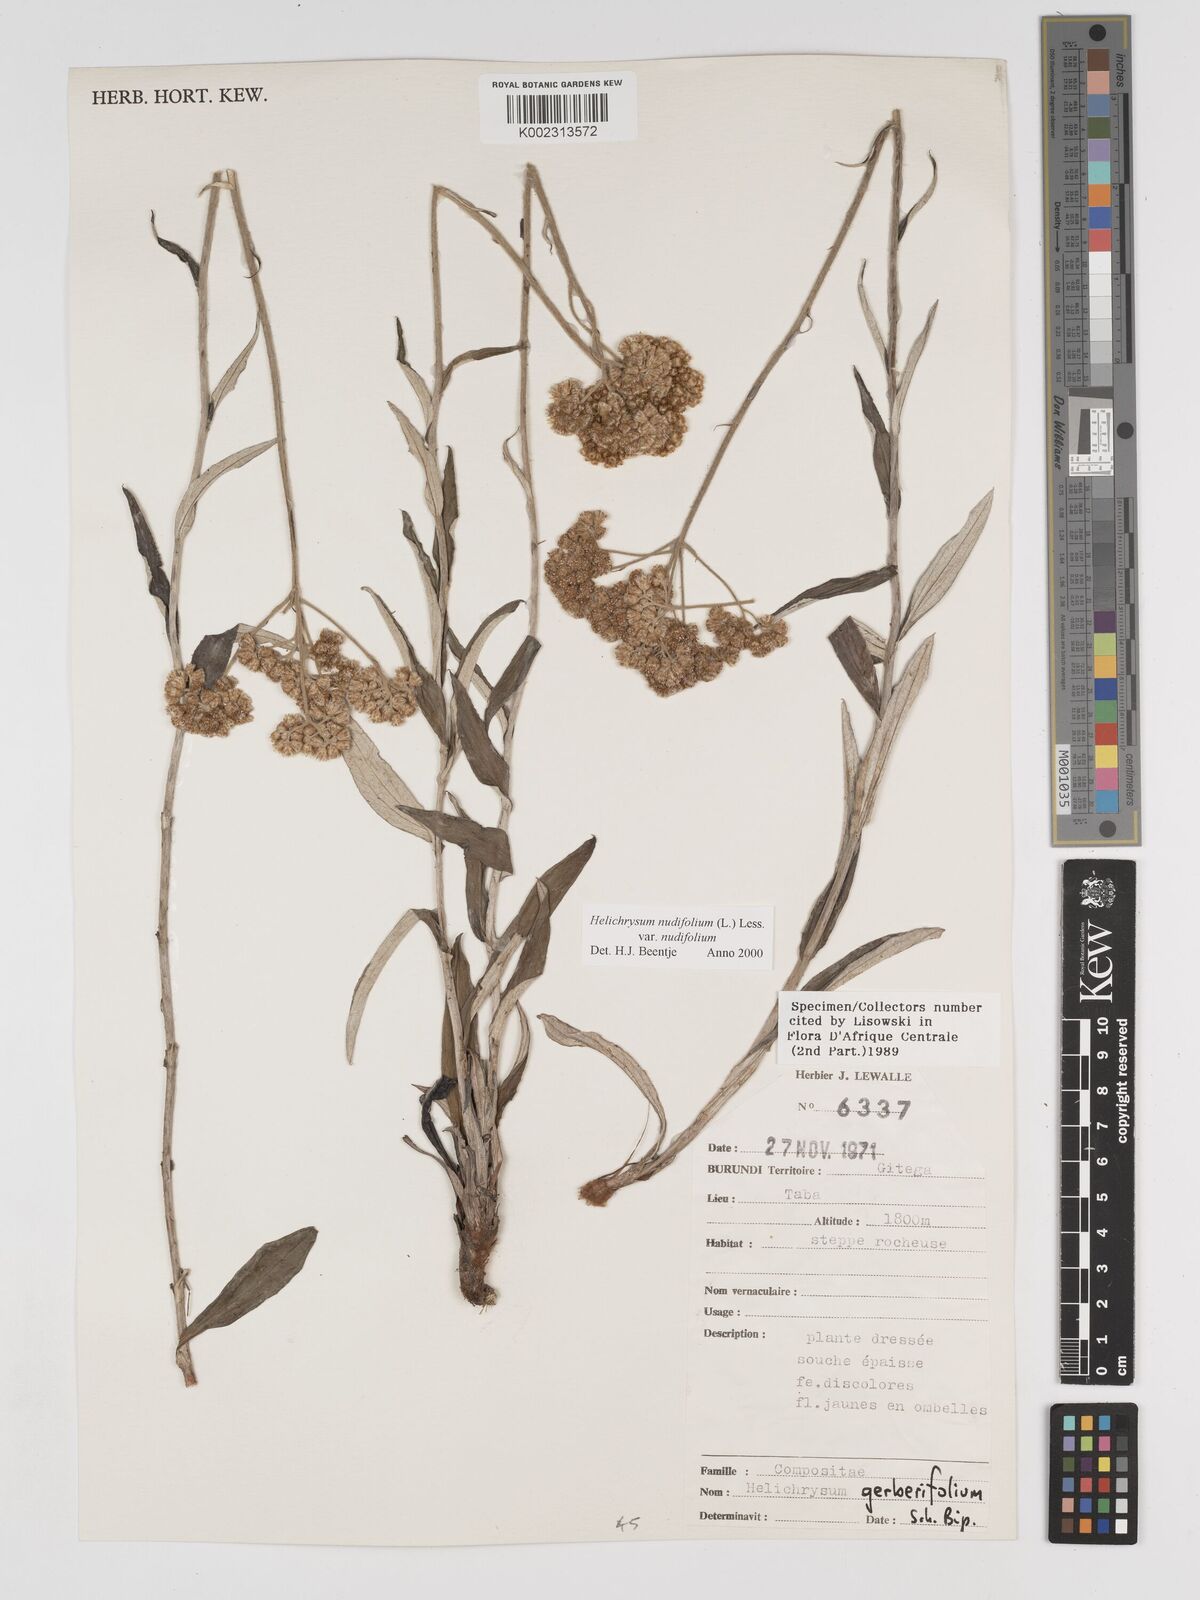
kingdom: Plantae
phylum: Tracheophyta
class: Magnoliopsida
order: Asterales
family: Asteraceae
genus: Helichrysum
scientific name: Helichrysum nudifolium
